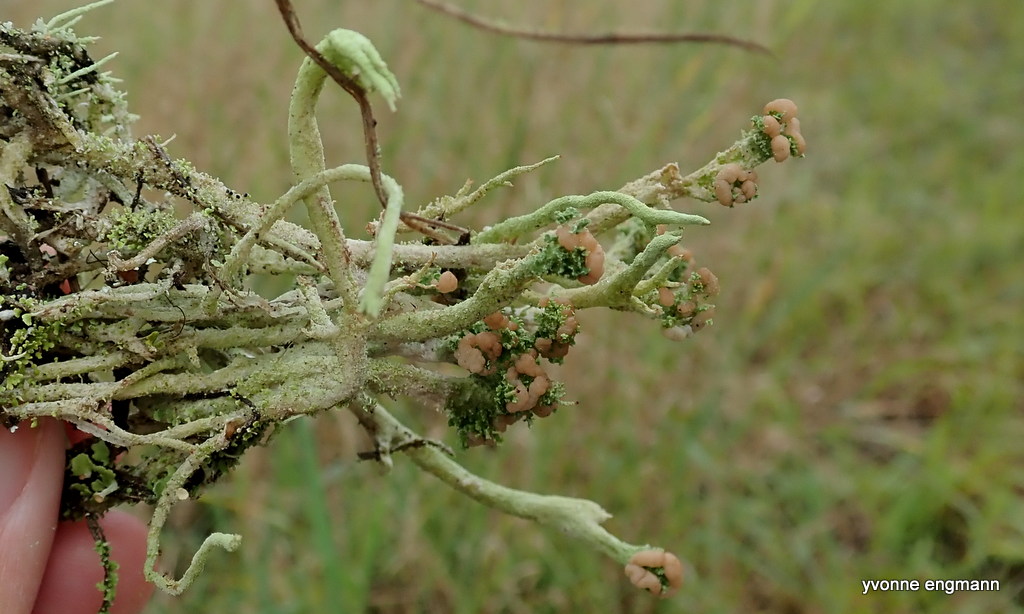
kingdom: Fungi
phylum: Ascomycota
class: Lecanoromycetes
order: Lecanorales
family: Cladoniaceae
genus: Cladonia
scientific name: Cladonia ramulosa
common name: kliddet bægerlav
